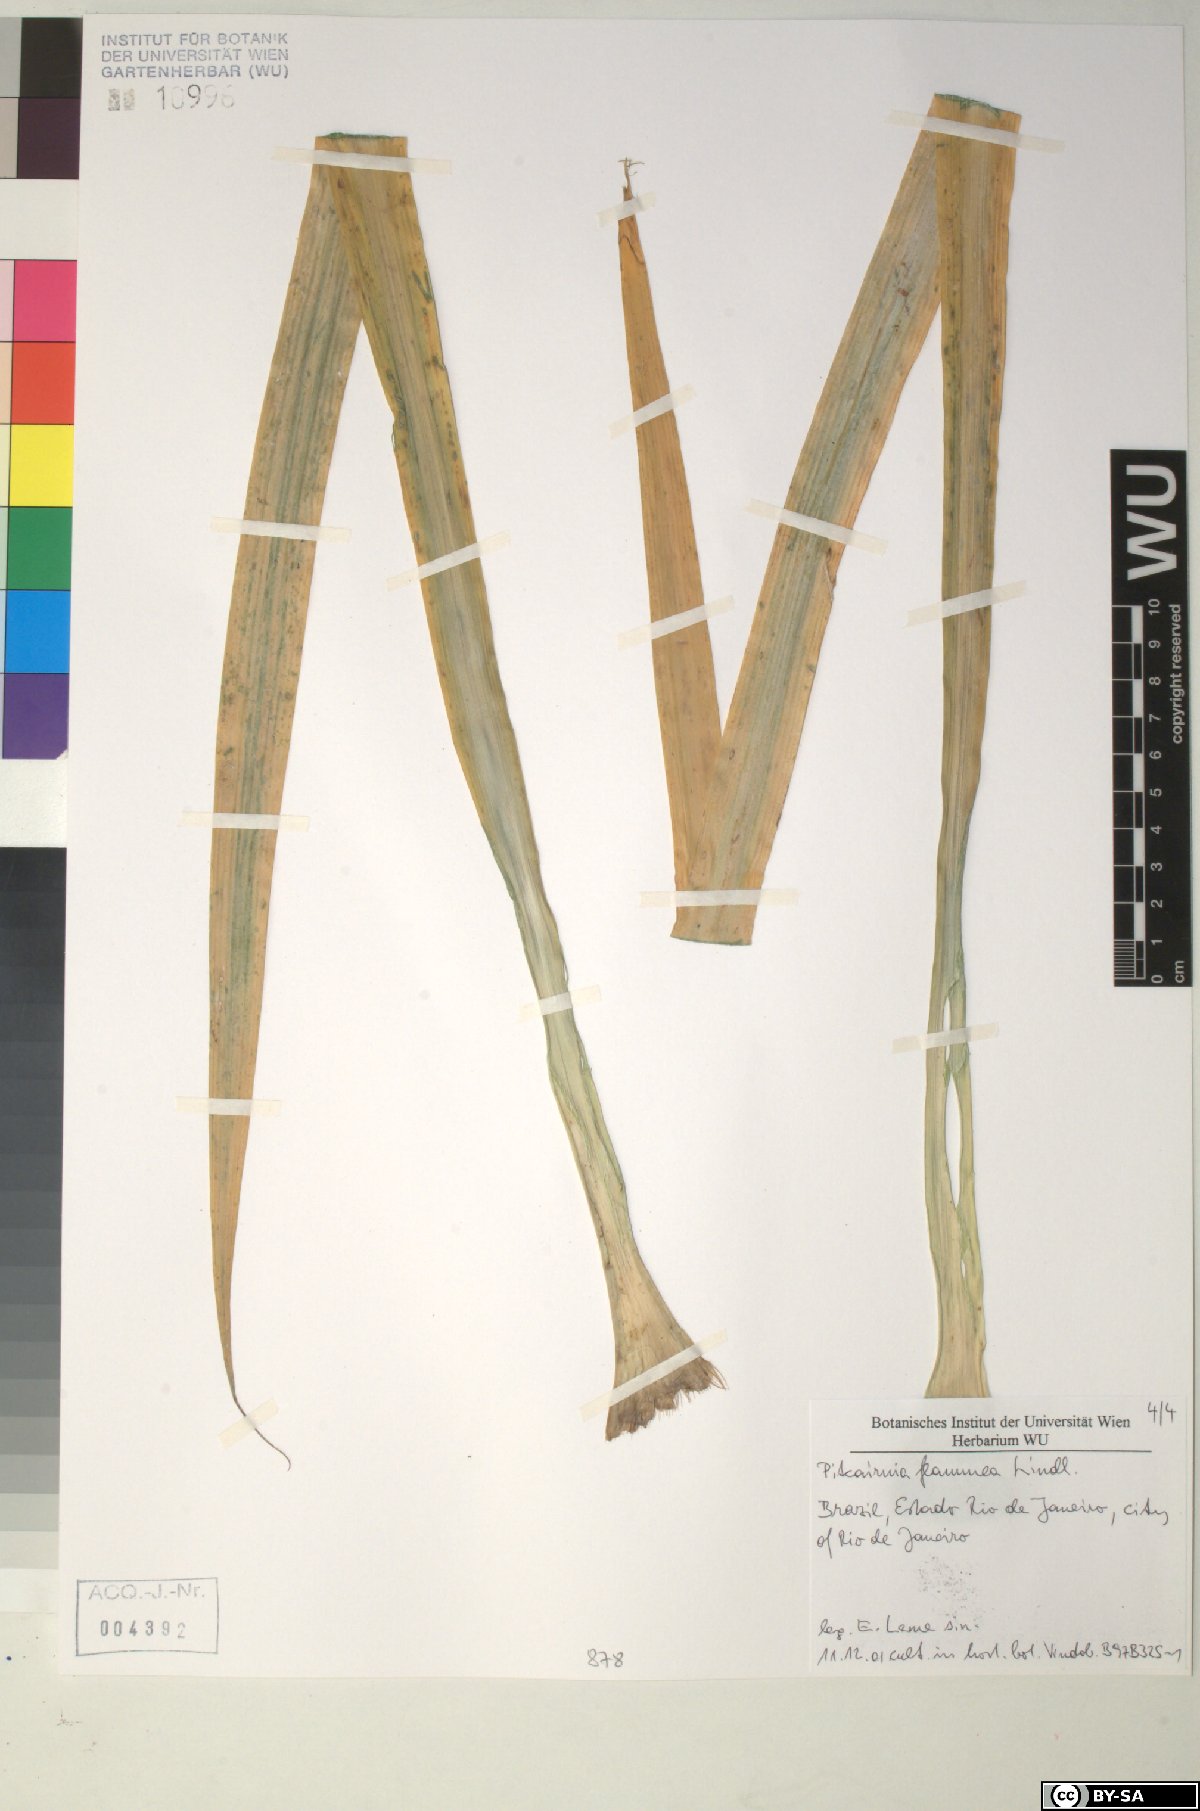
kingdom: Plantae
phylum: Tracheophyta
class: Liliopsida
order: Poales
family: Bromeliaceae
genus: Pitcairnia
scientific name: Pitcairnia
